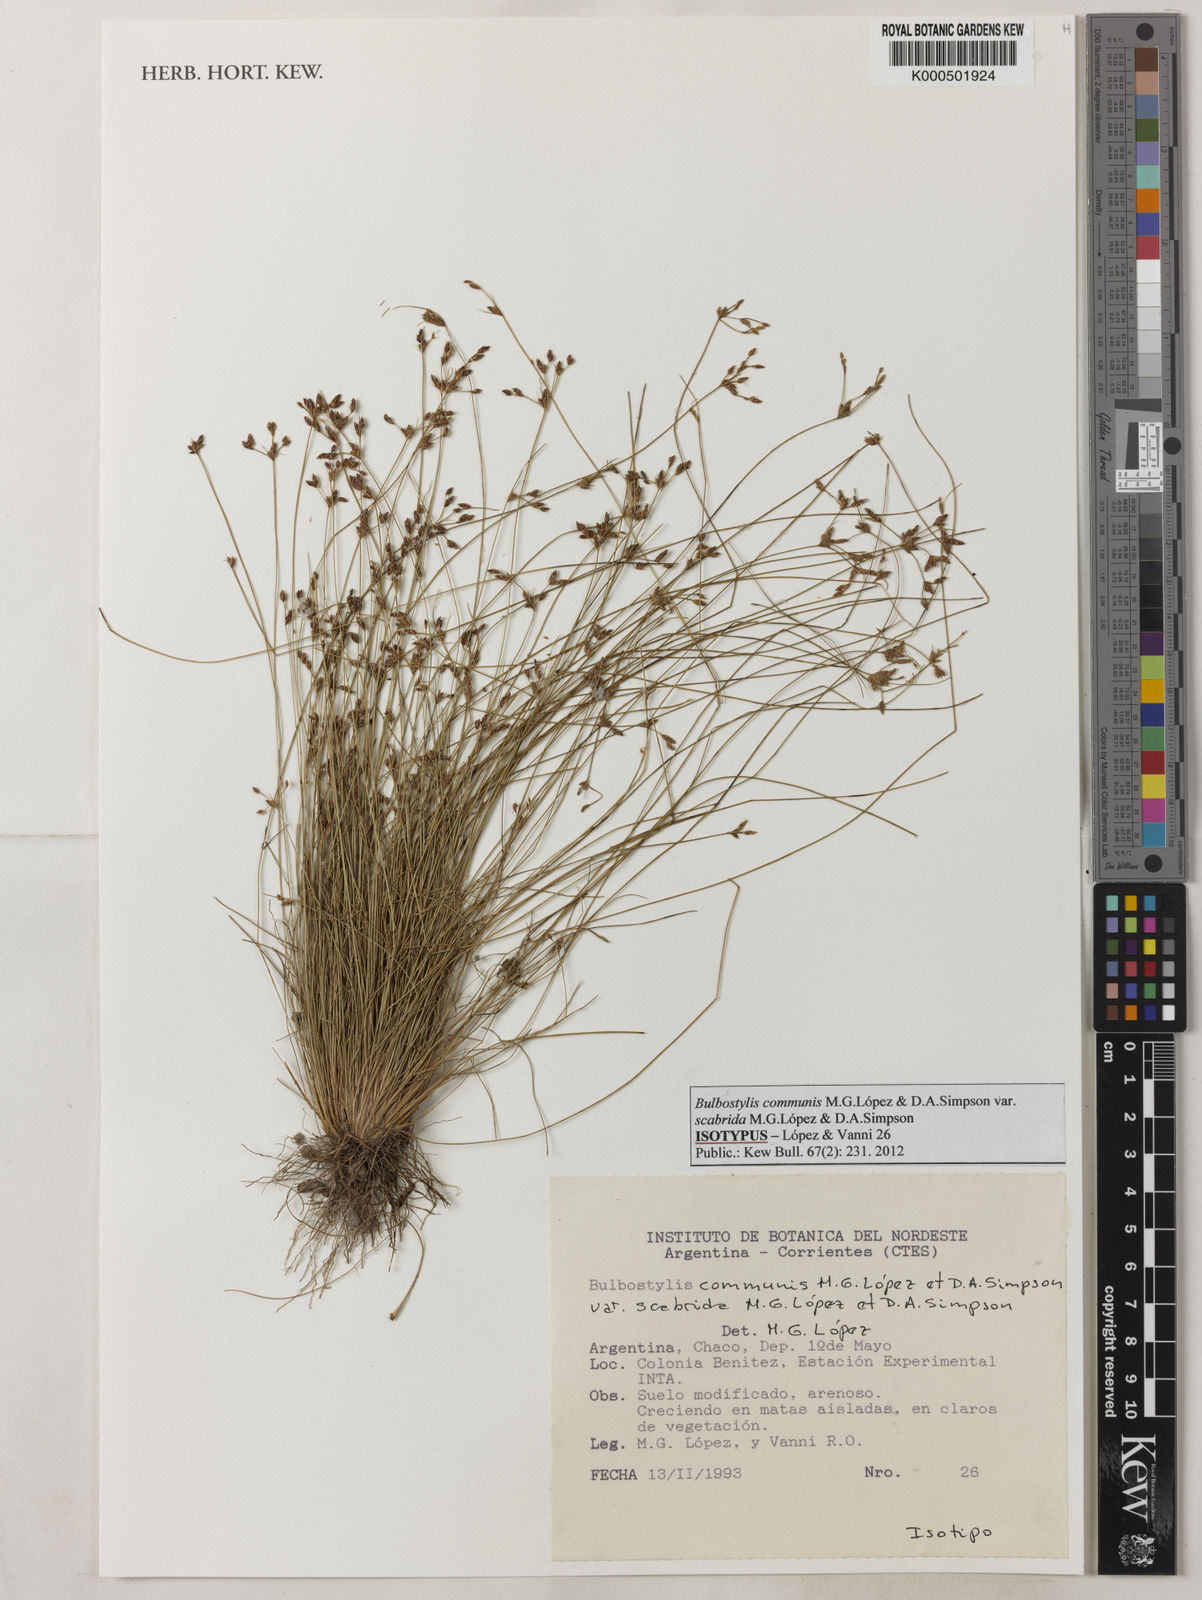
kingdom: Plantae
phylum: Tracheophyta
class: Liliopsida
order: Poales
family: Cyperaceae
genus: Bulbostylis
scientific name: Bulbostylis
